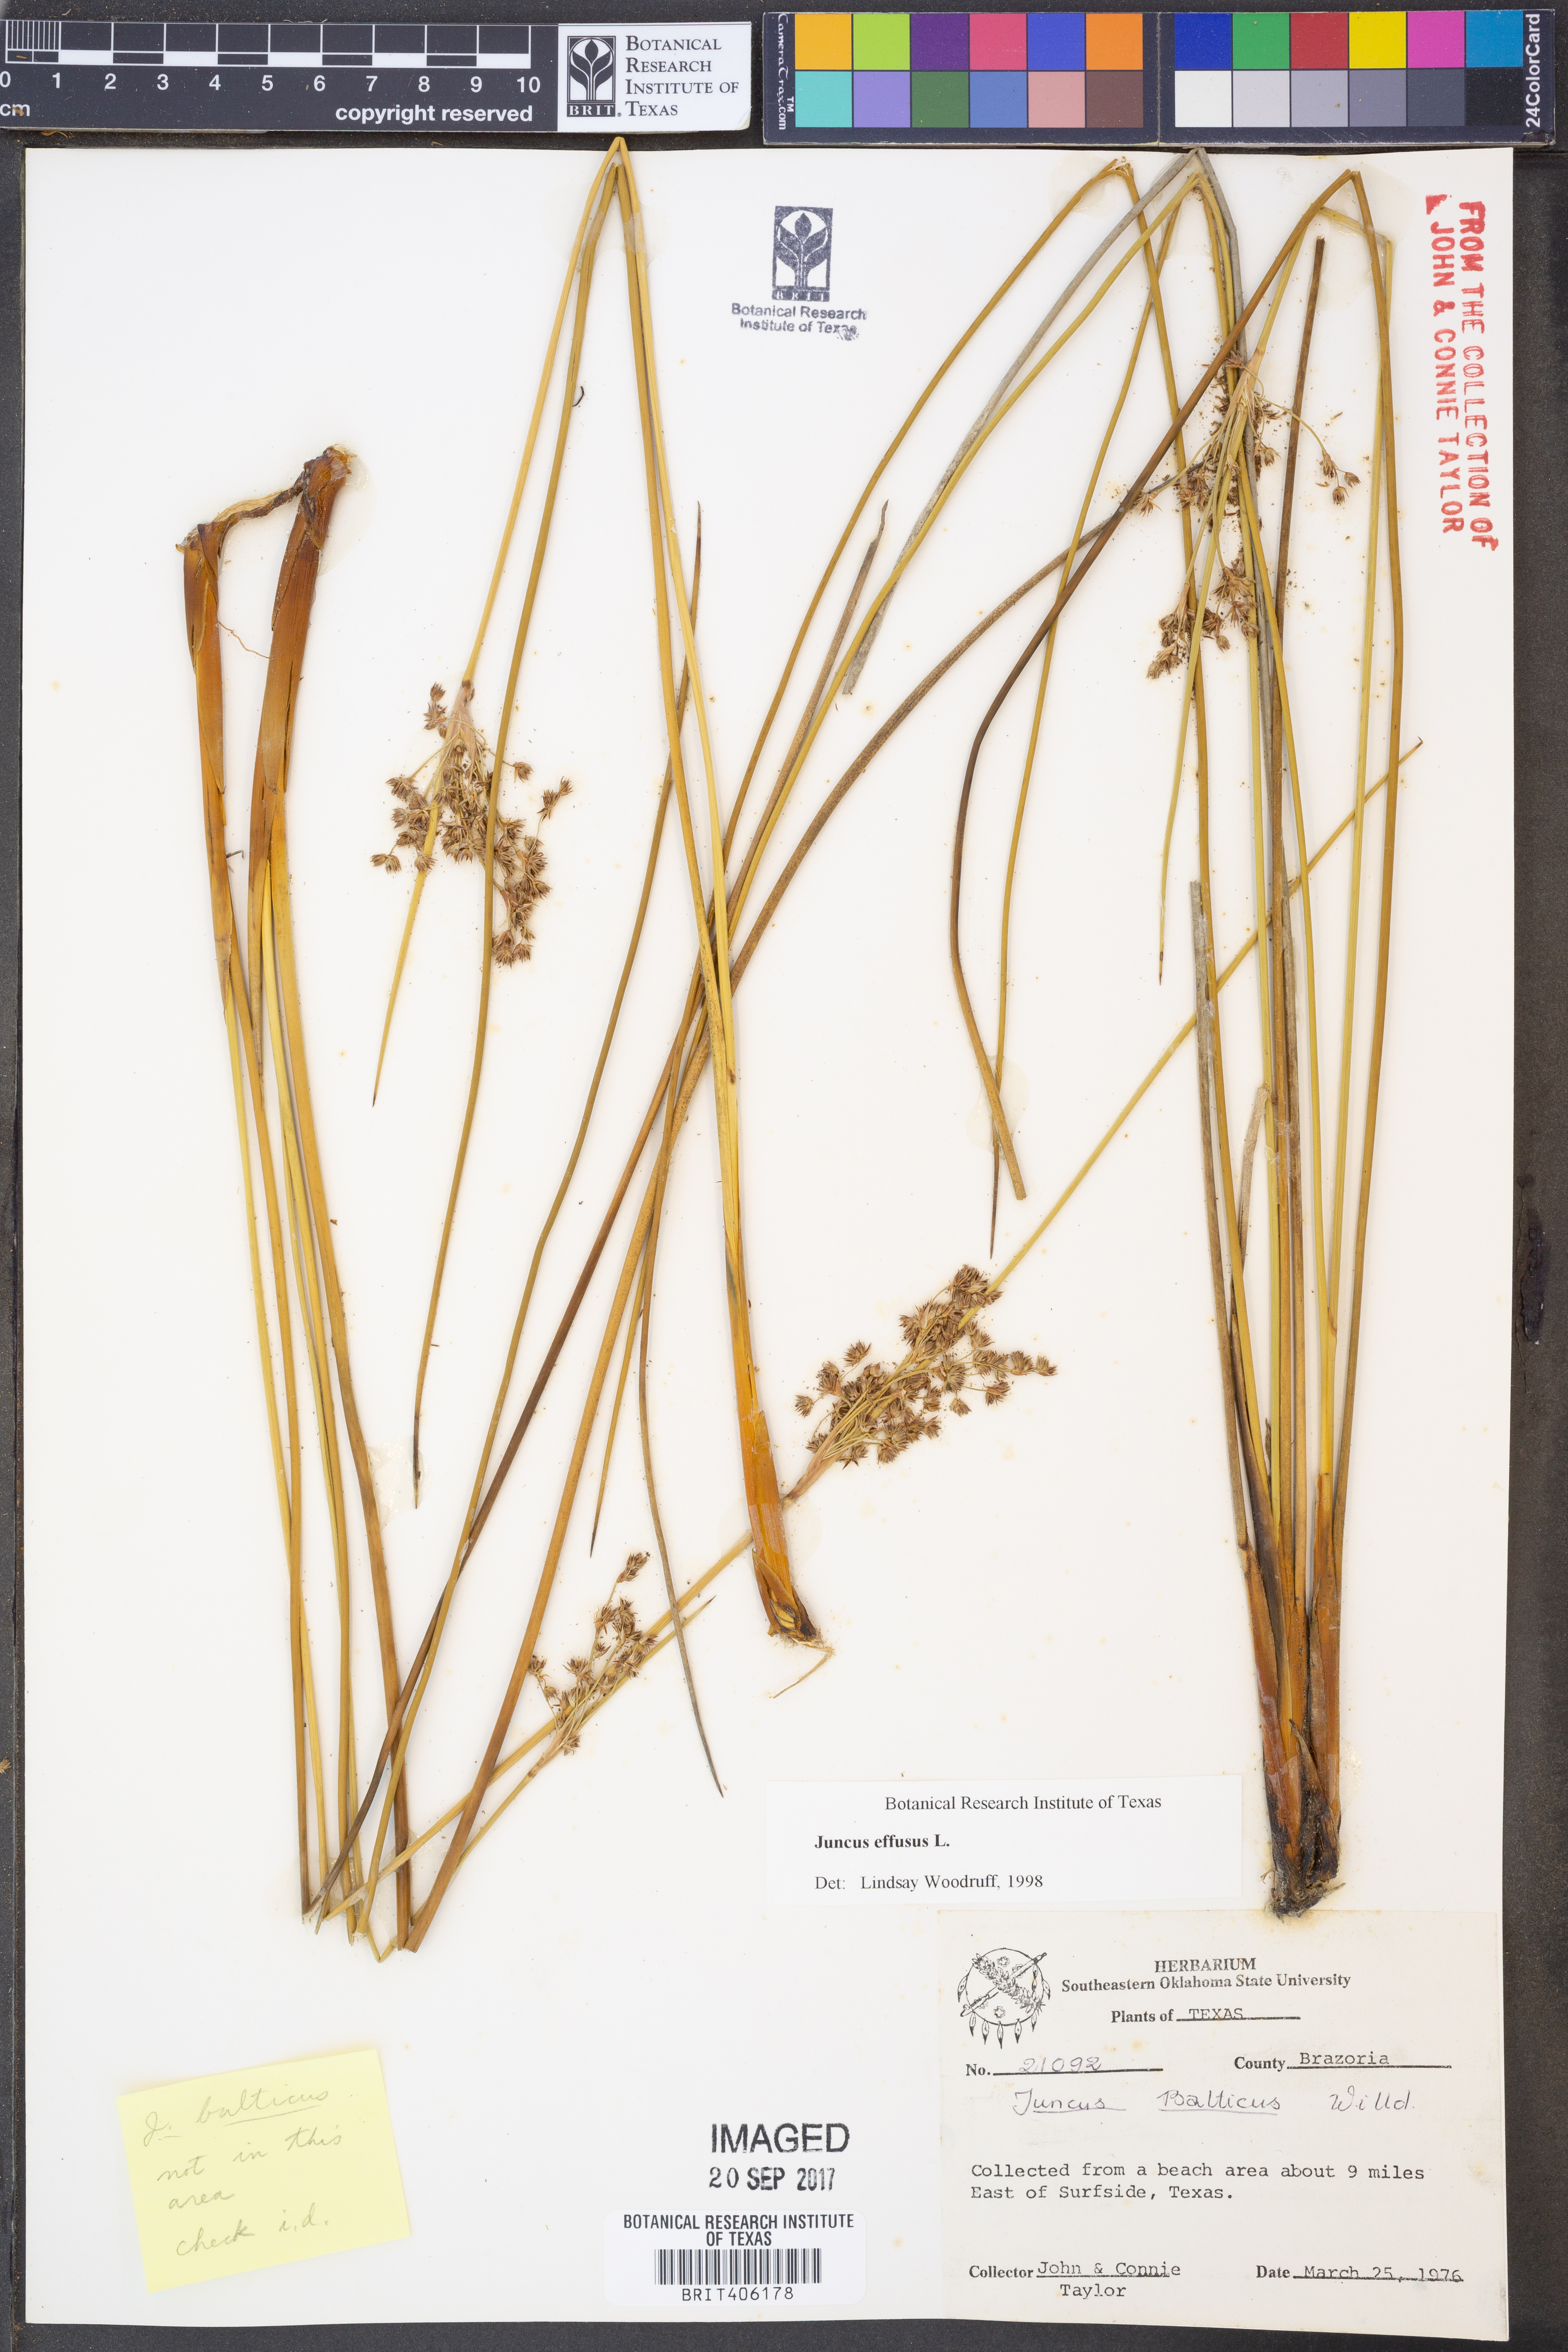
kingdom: Plantae
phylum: Tracheophyta
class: Liliopsida
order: Poales
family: Juncaceae
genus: Juncus
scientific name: Juncus effusus
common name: Soft rush
